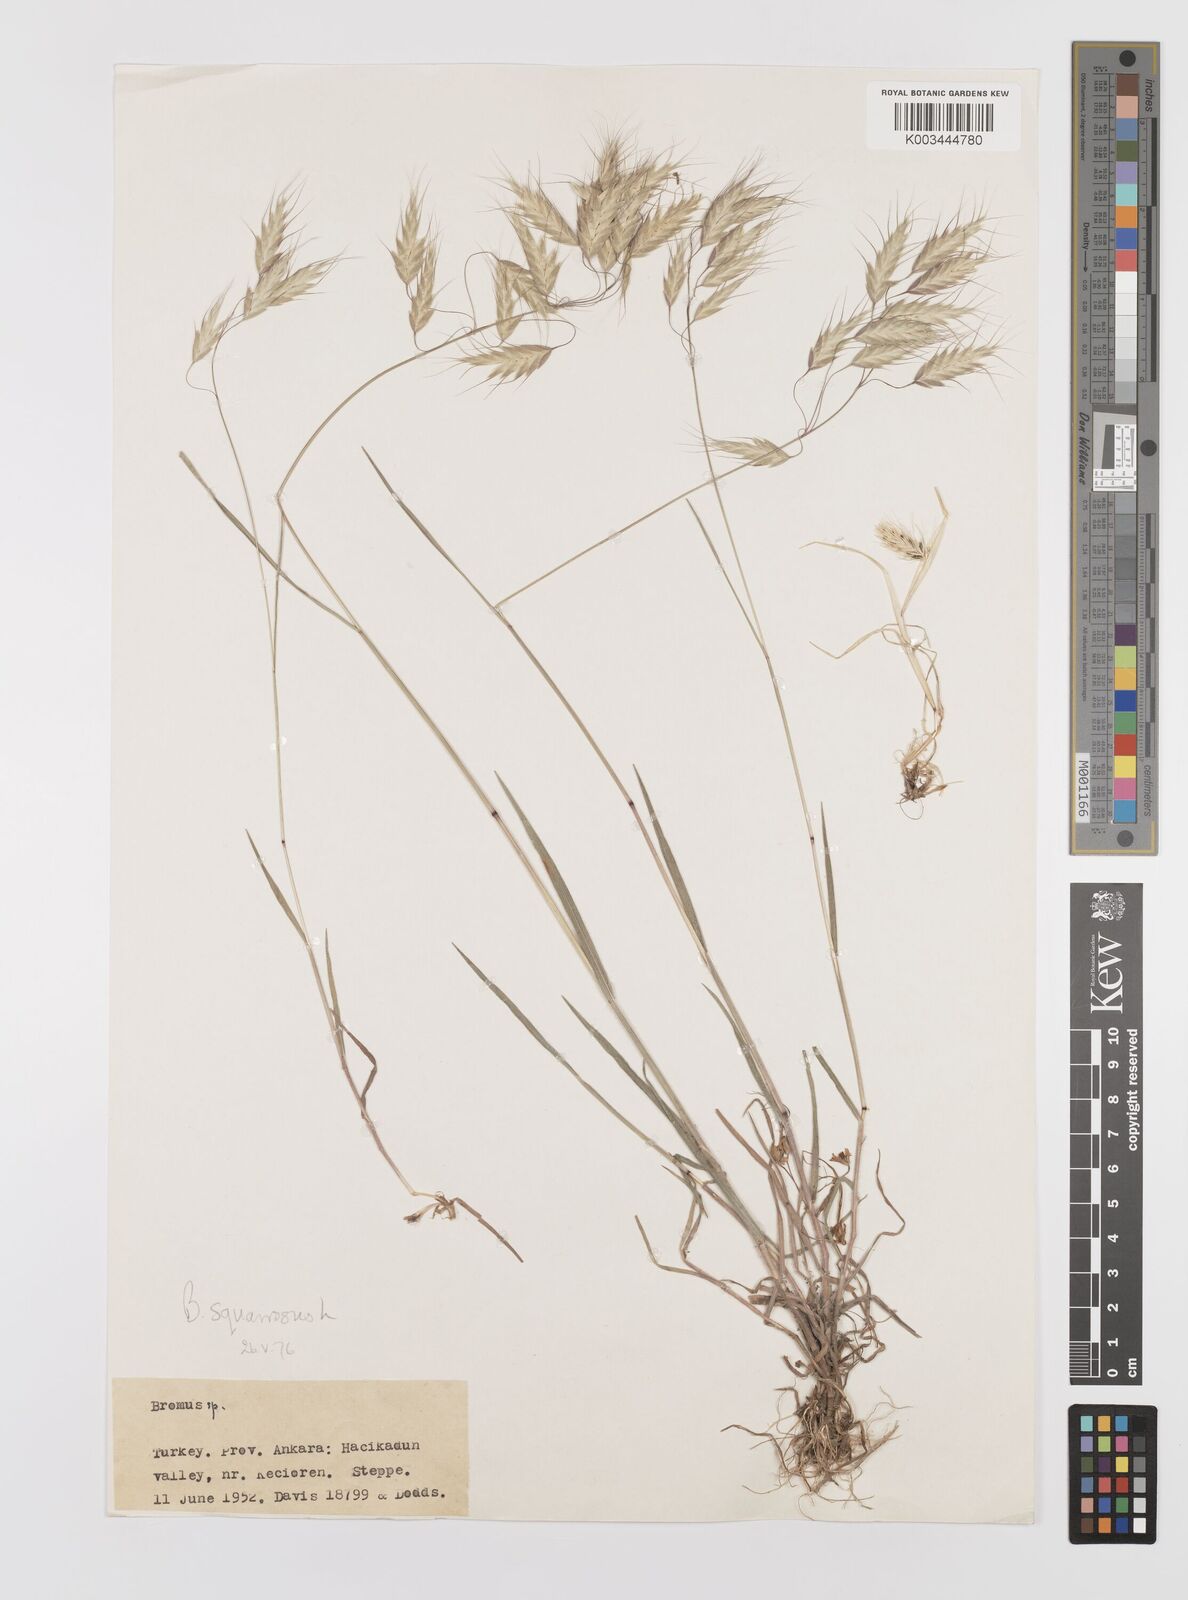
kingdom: Plantae
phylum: Tracheophyta
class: Liliopsida
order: Poales
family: Poaceae
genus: Bromus
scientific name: Bromus squarrosus
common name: Corn brome
